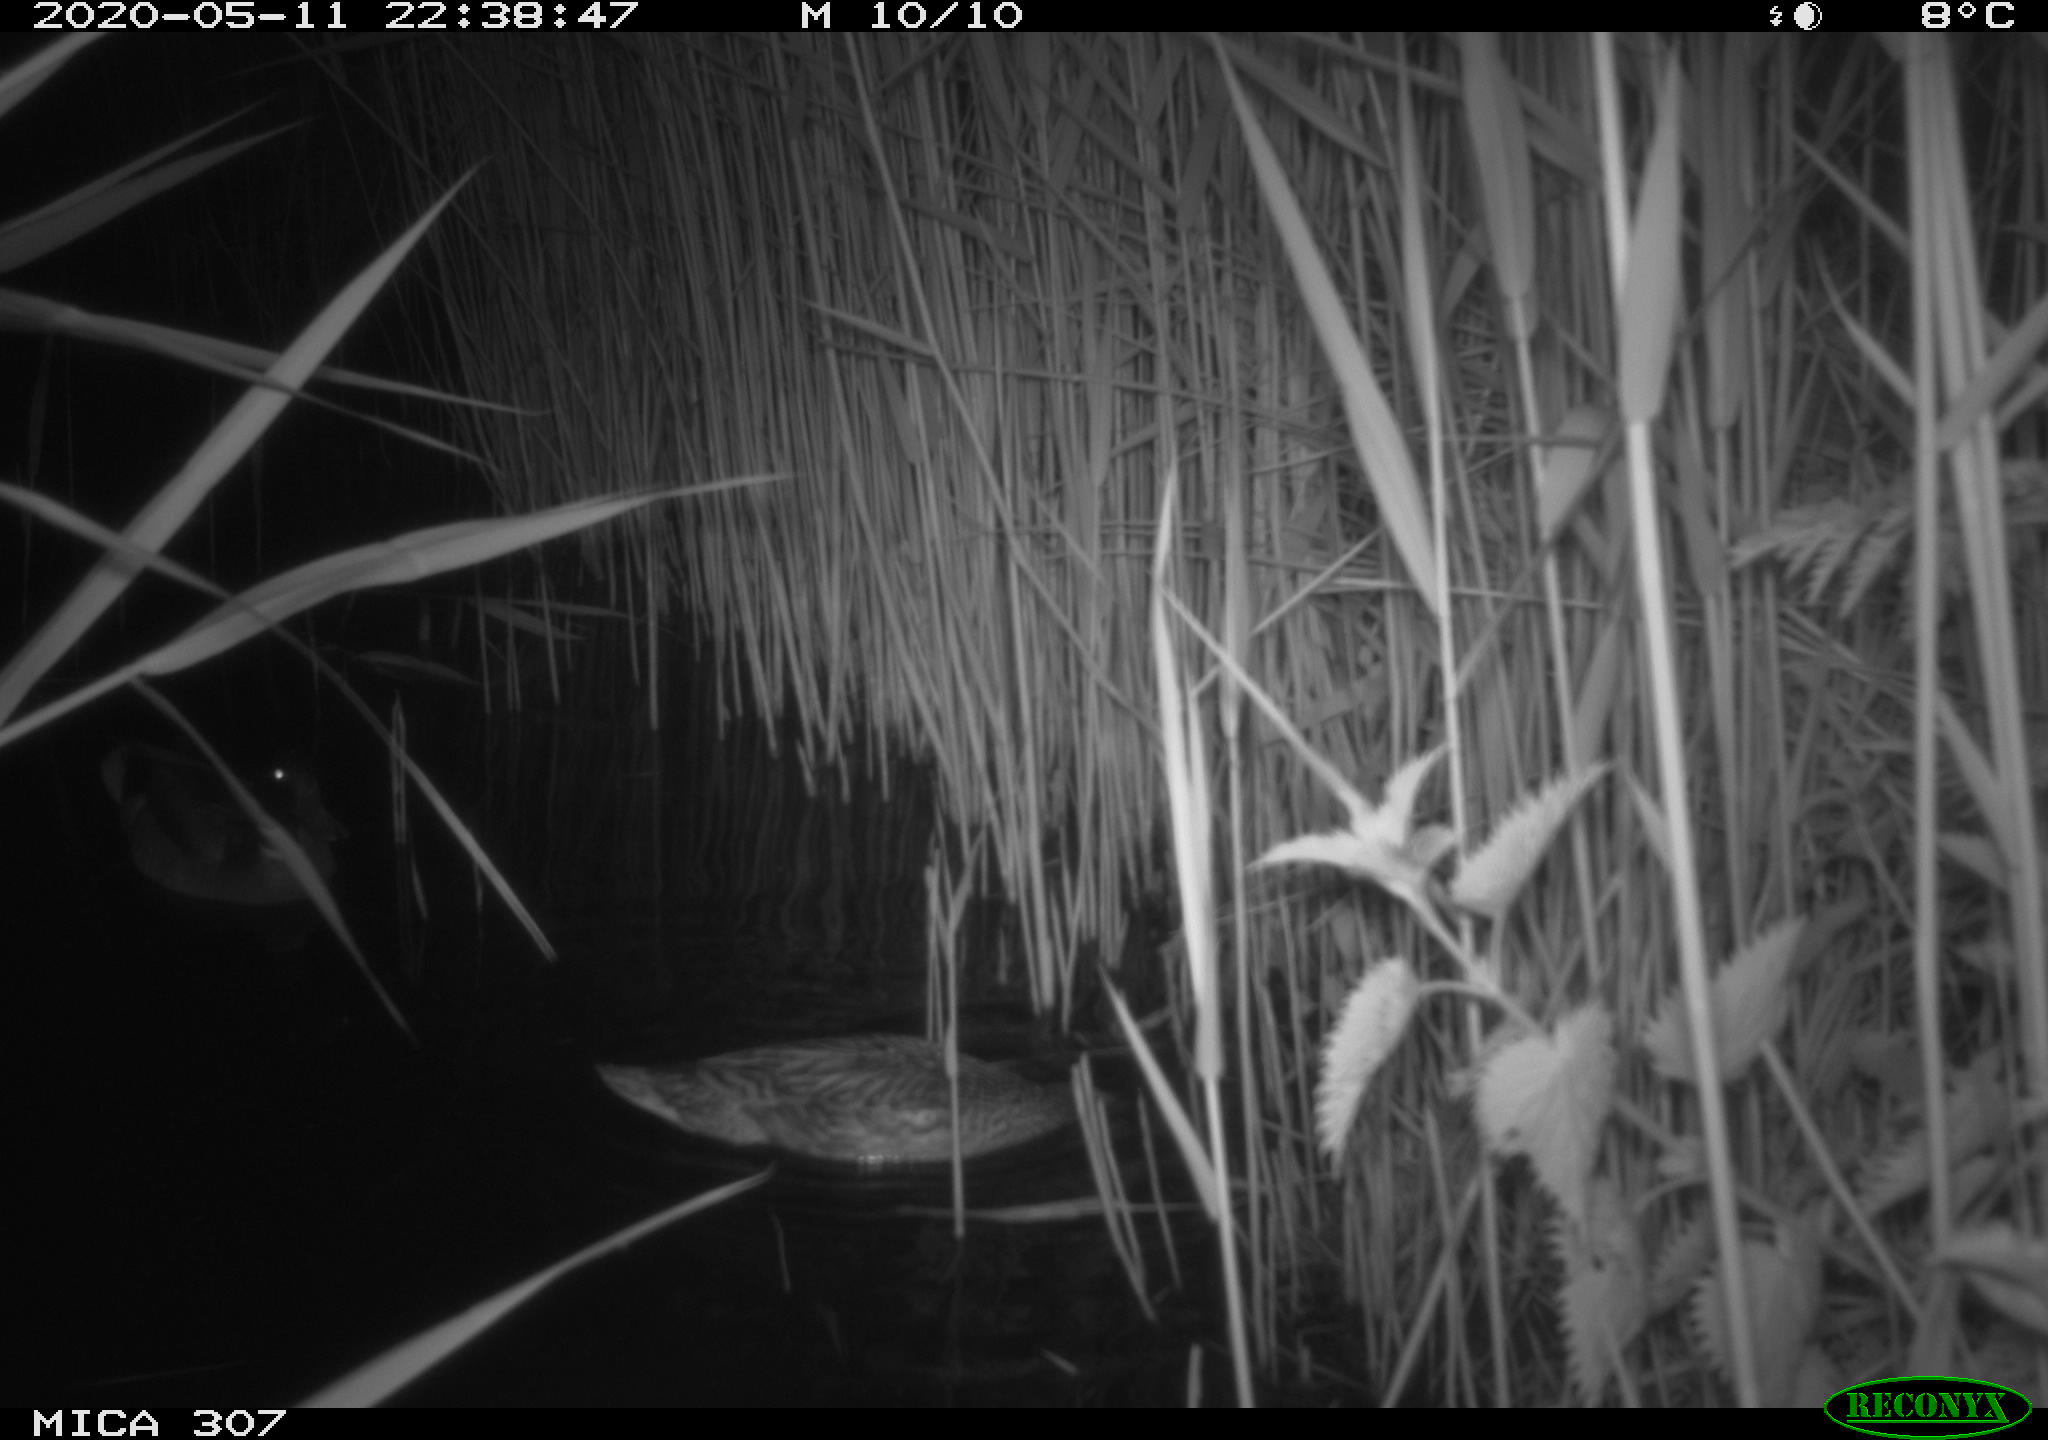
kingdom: Animalia
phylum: Chordata
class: Aves
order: Anseriformes
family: Anatidae
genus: Anas
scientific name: Anas platyrhynchos
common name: Mallard
